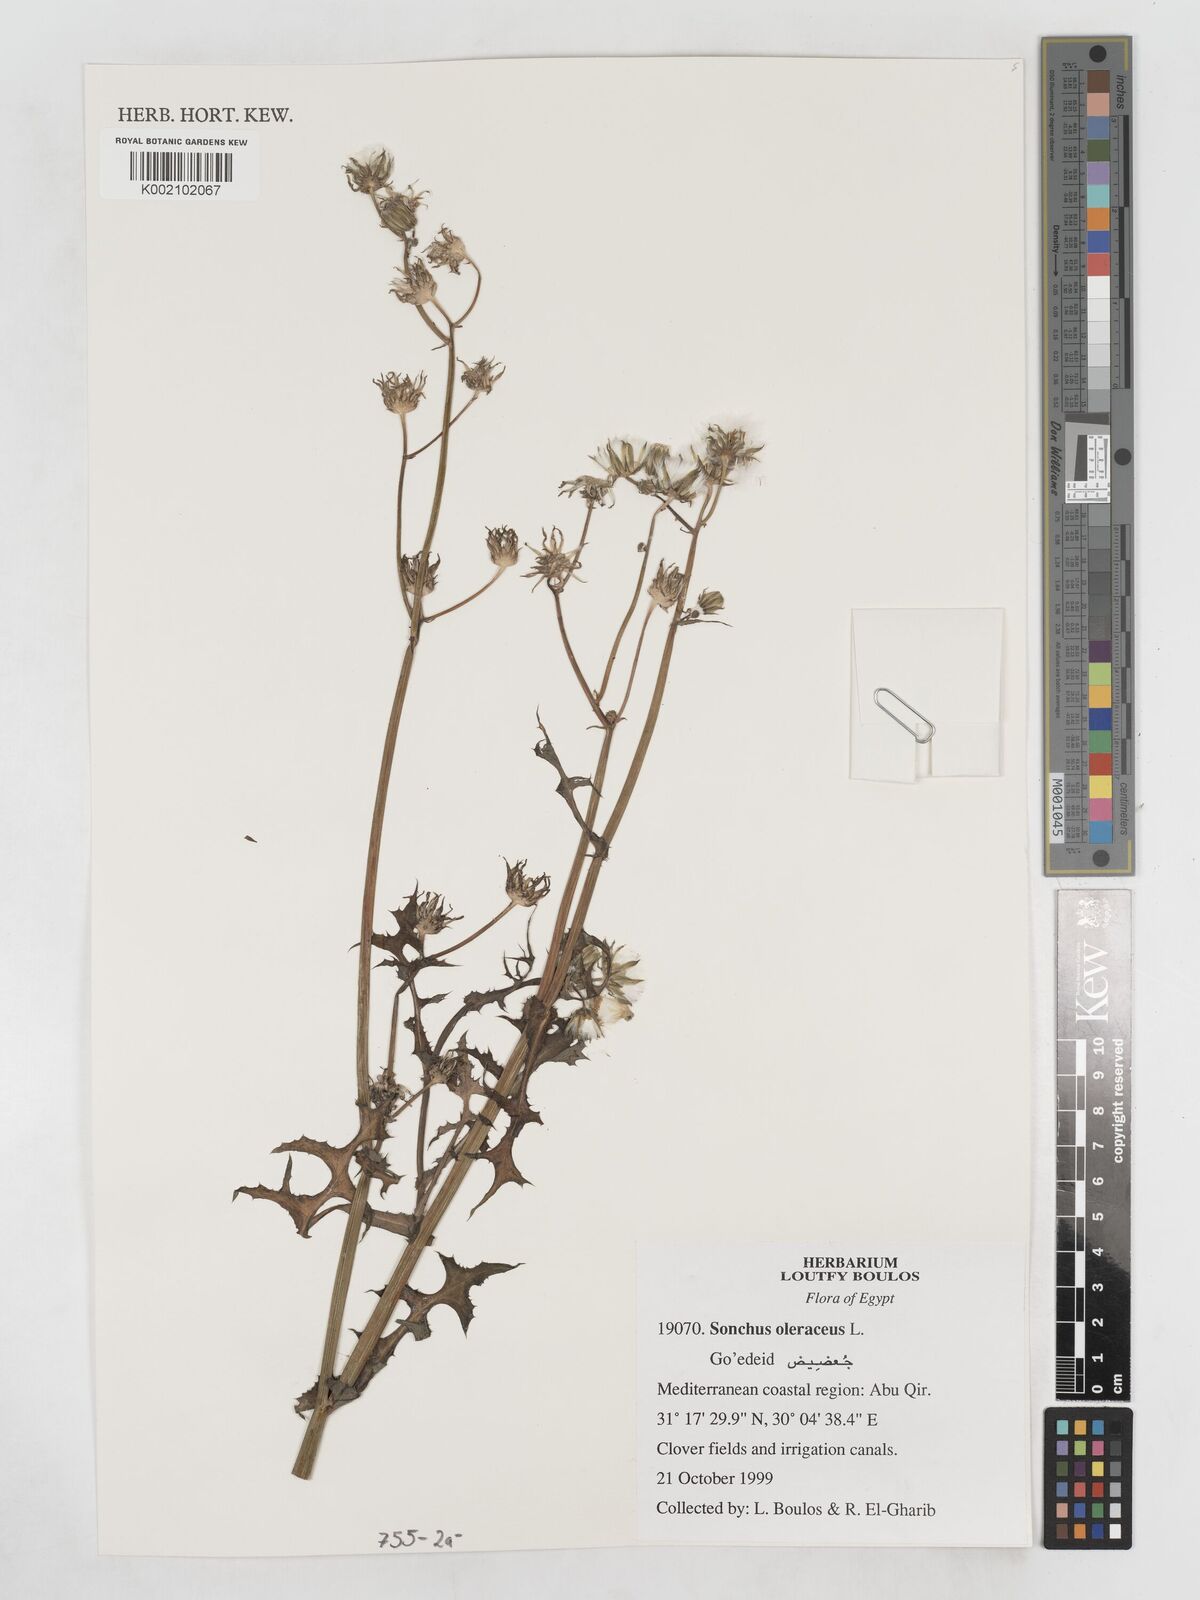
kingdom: Plantae
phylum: Tracheophyta
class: Magnoliopsida
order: Asterales
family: Asteraceae
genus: Sonchus
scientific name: Sonchus oleraceus
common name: Common sowthistle
